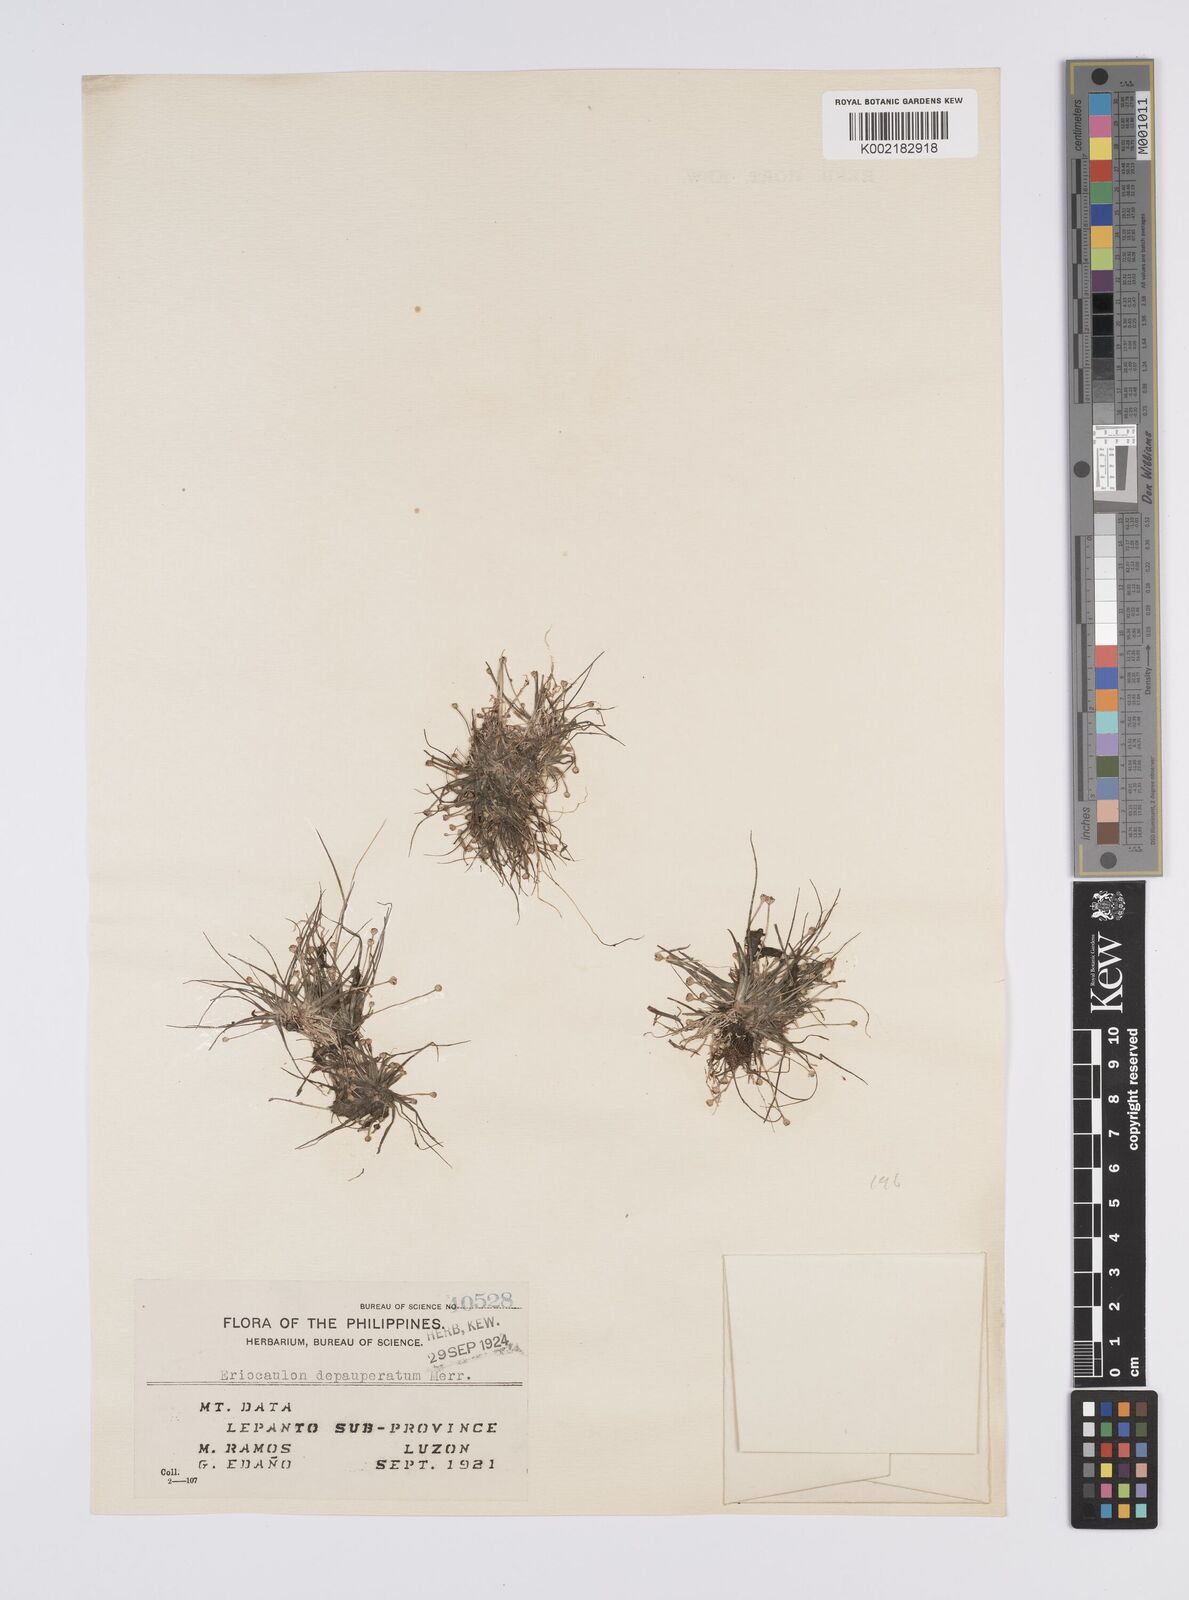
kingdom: Plantae
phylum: Tracheophyta
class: Liliopsida
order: Poales
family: Eriocaulaceae
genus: Eriocaulon
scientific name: Eriocaulon depauperatum
